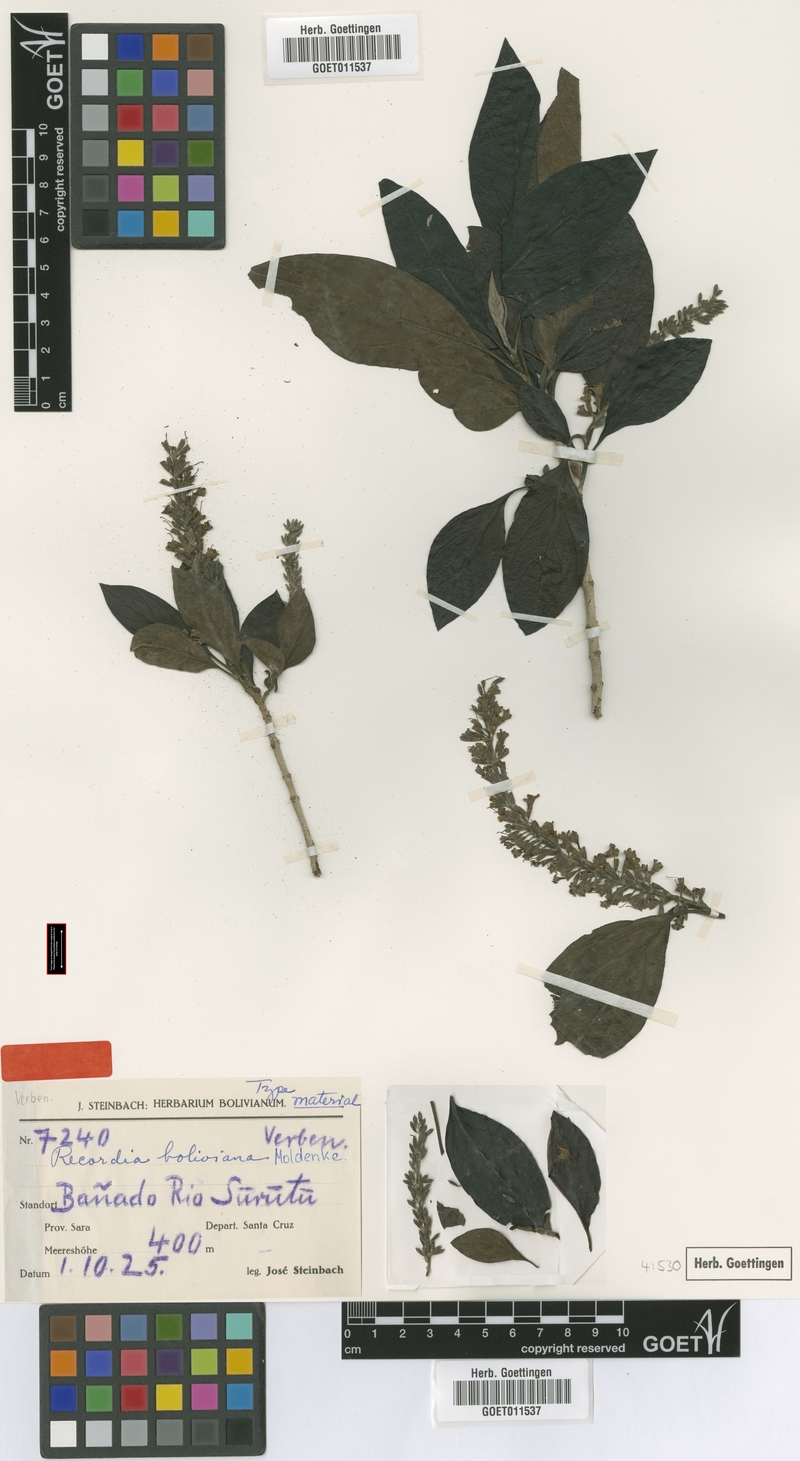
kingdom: Plantae
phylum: Tracheophyta
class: Magnoliopsida
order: Lamiales
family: Verbenaceae
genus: Recordia
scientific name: Recordia boliviana
